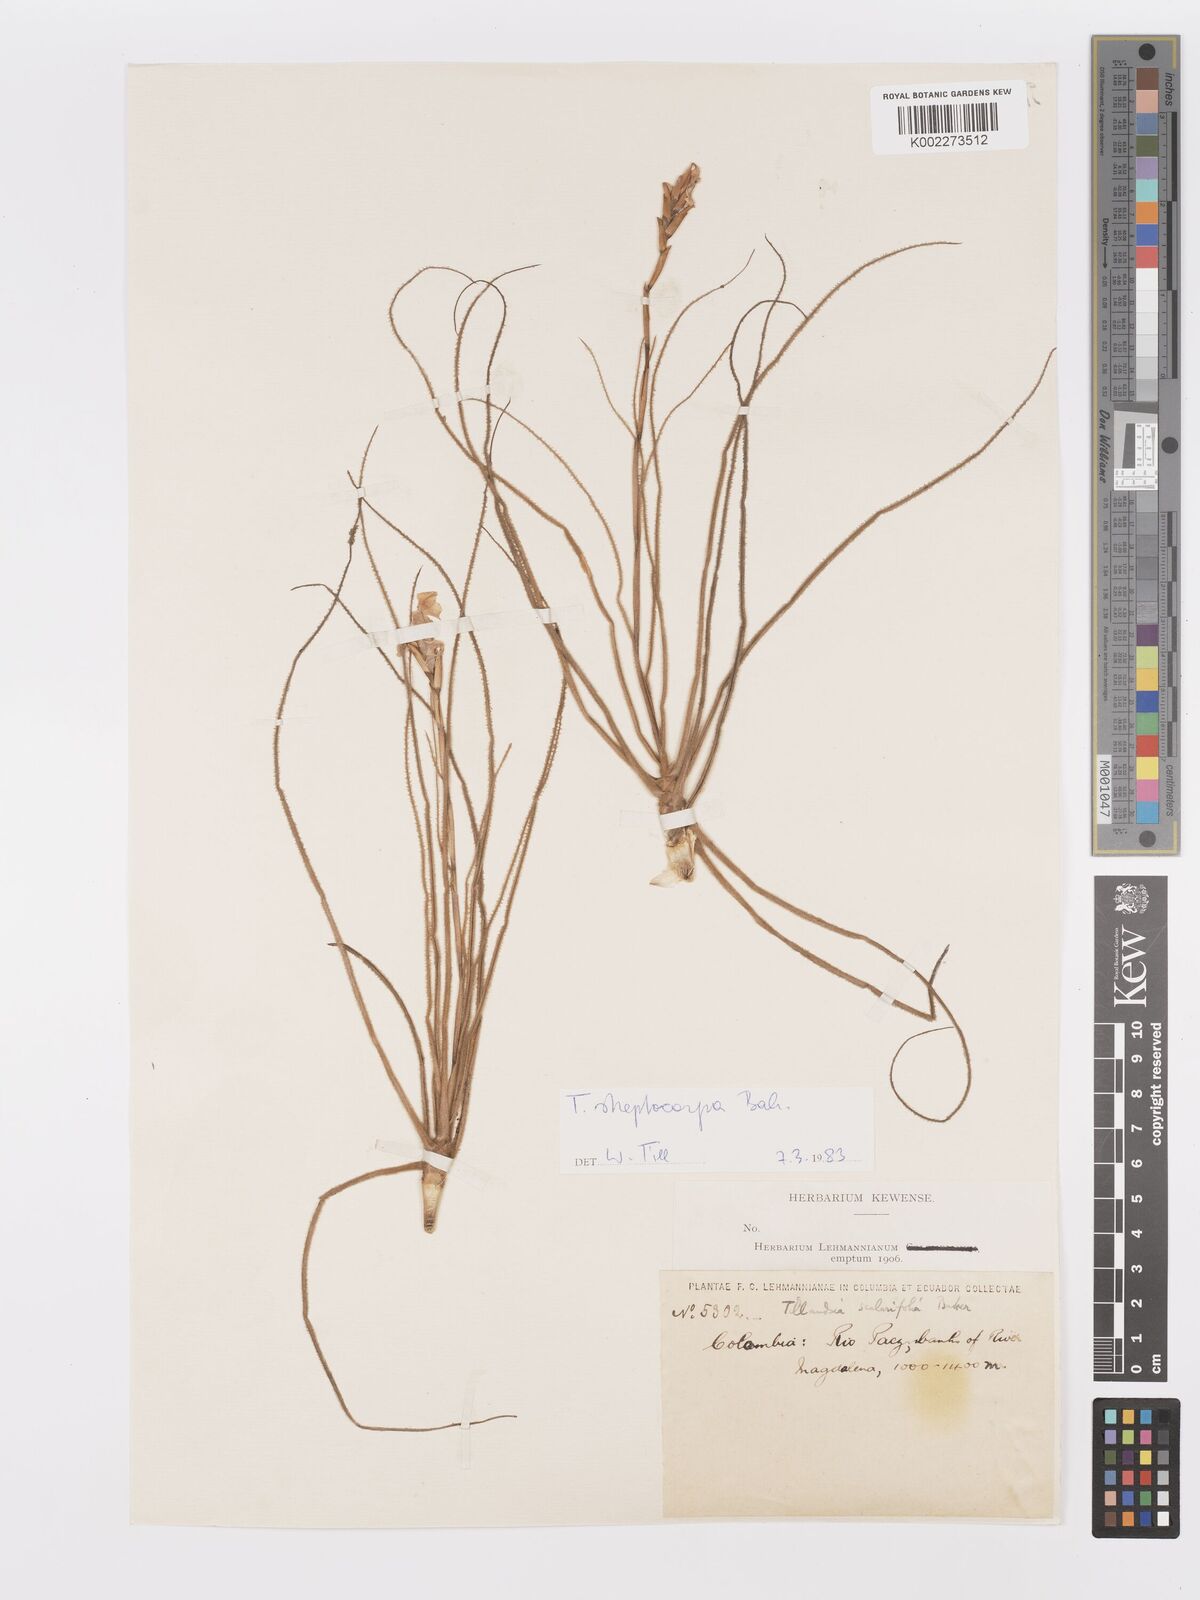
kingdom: Plantae
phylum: Tracheophyta
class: Liliopsida
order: Poales
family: Bromeliaceae
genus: Tillandsia
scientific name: Tillandsia streptocarpa
